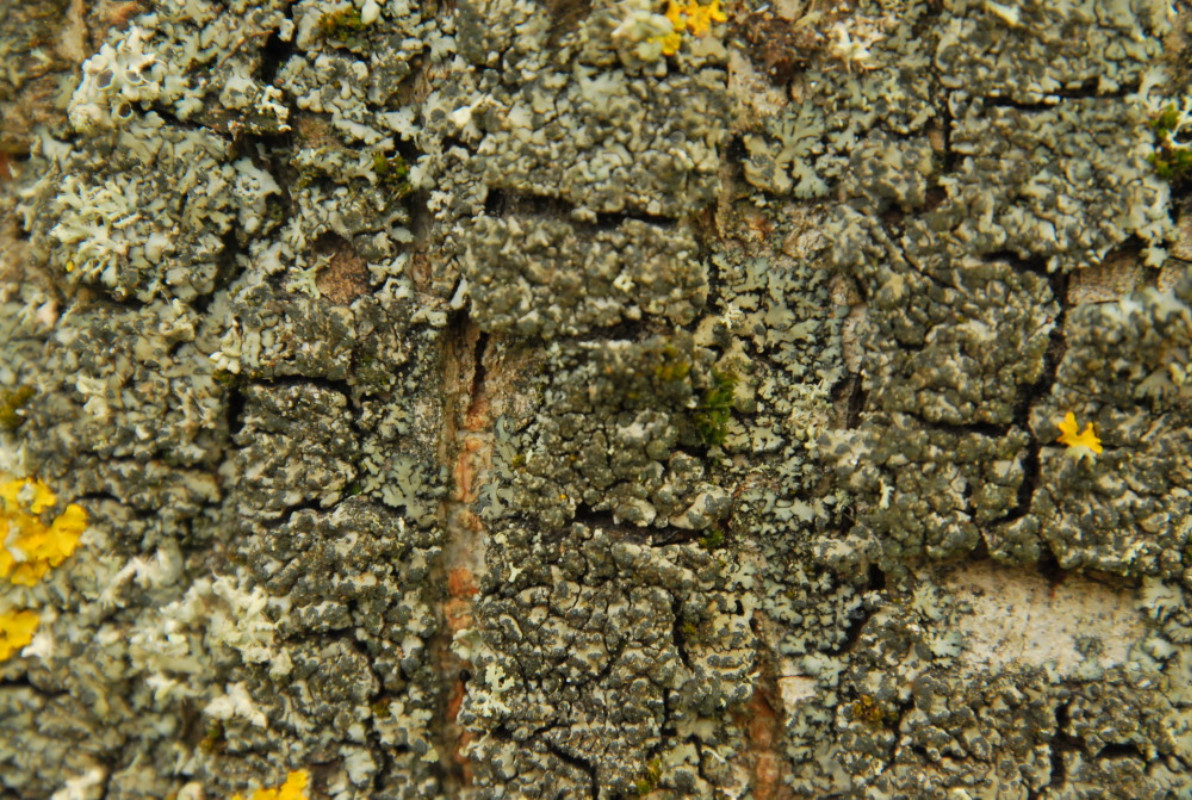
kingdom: Fungi
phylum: Ascomycota
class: Lecanoromycetes
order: Caliciales
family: Physciaceae
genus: Phaeophyscia
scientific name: Phaeophyscia orbicularis
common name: grågrøn rosetlav
